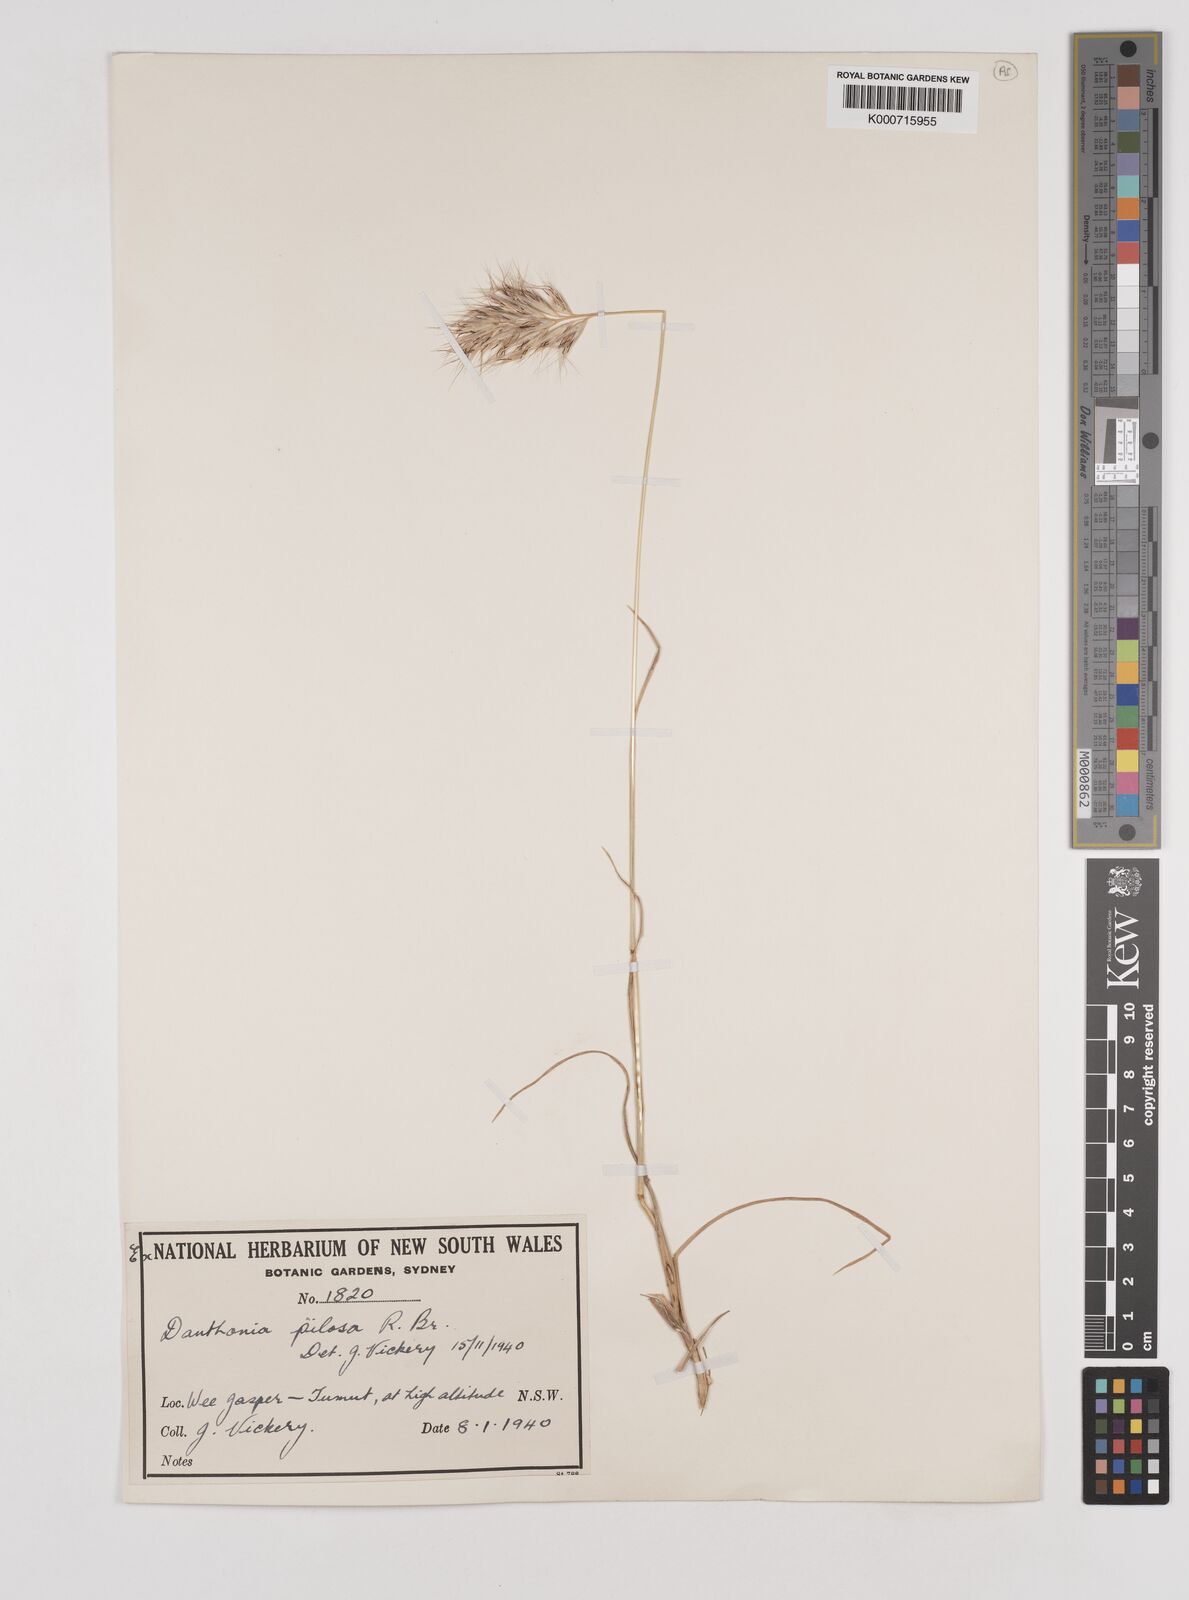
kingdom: Plantae
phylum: Tracheophyta
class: Liliopsida
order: Poales
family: Poaceae
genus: Rytidosperma
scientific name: Rytidosperma pilosum
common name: Hairy wallaby grass
